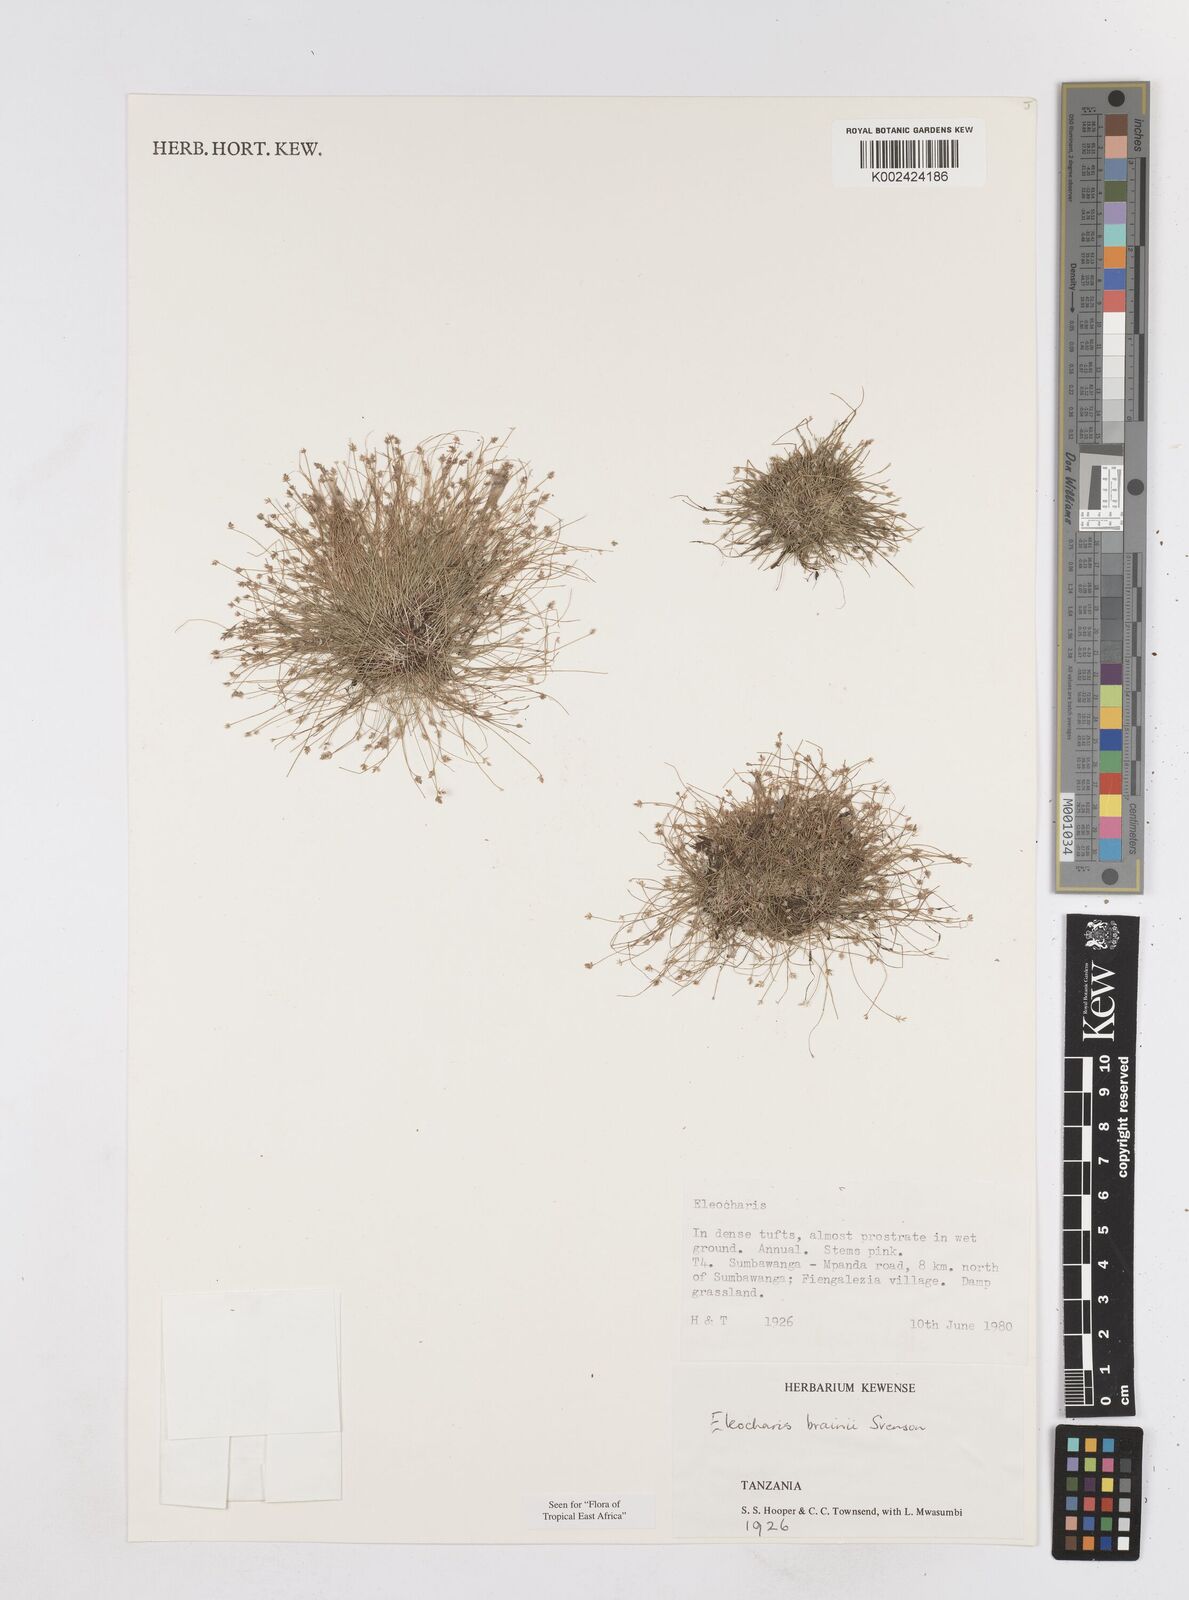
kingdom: Plantae
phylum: Tracheophyta
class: Liliopsida
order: Poales
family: Cyperaceae
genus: Eleocharis
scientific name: Eleocharis brainii
